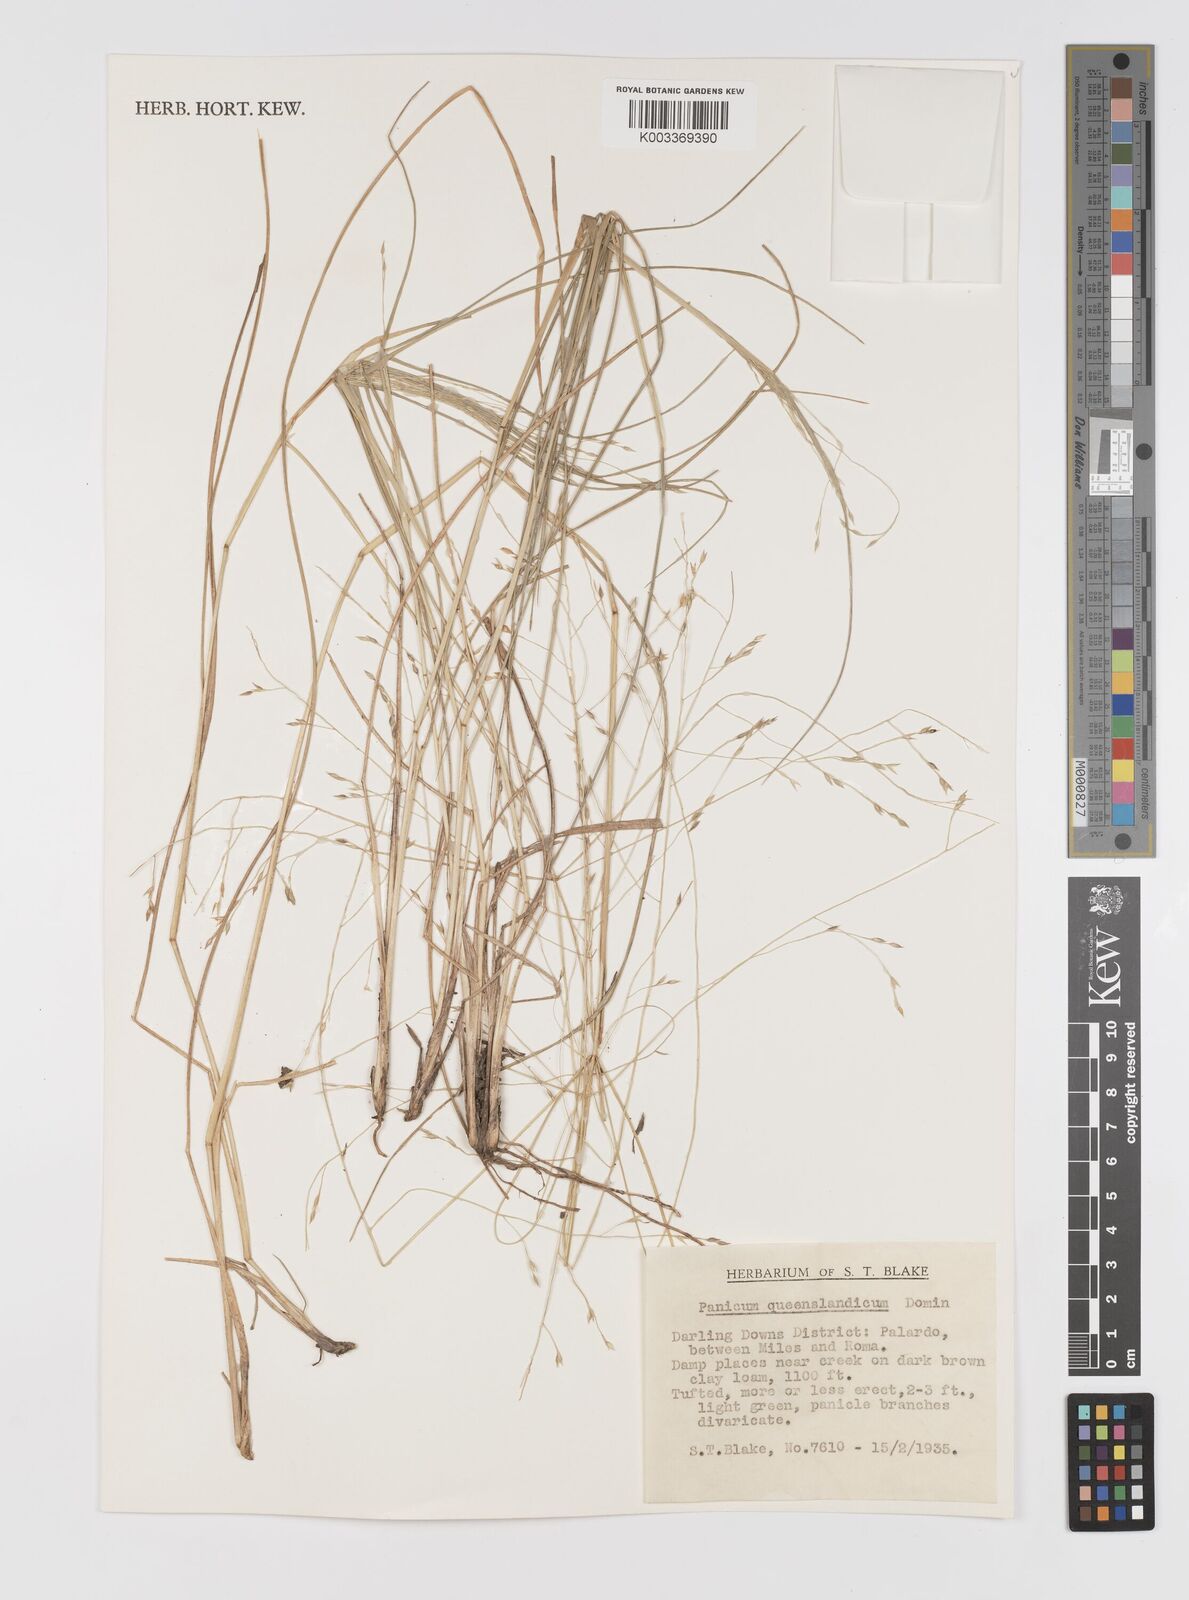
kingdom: Plantae
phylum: Tracheophyta
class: Liliopsida
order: Poales
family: Poaceae
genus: Panicum
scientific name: Panicum queenslandicum
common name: Yabila grass
